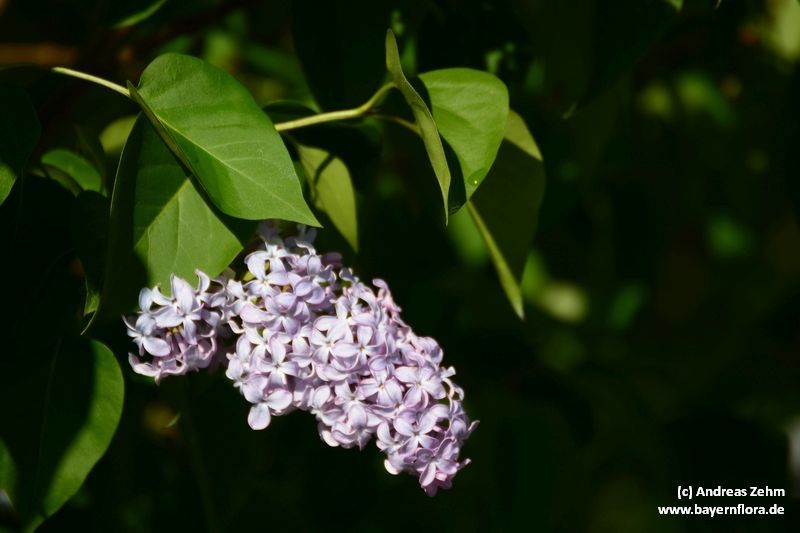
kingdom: Plantae
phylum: Tracheophyta
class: Magnoliopsida
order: Lamiales
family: Oleaceae
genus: Syringa
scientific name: Syringa vulgaris
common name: Common lilac
